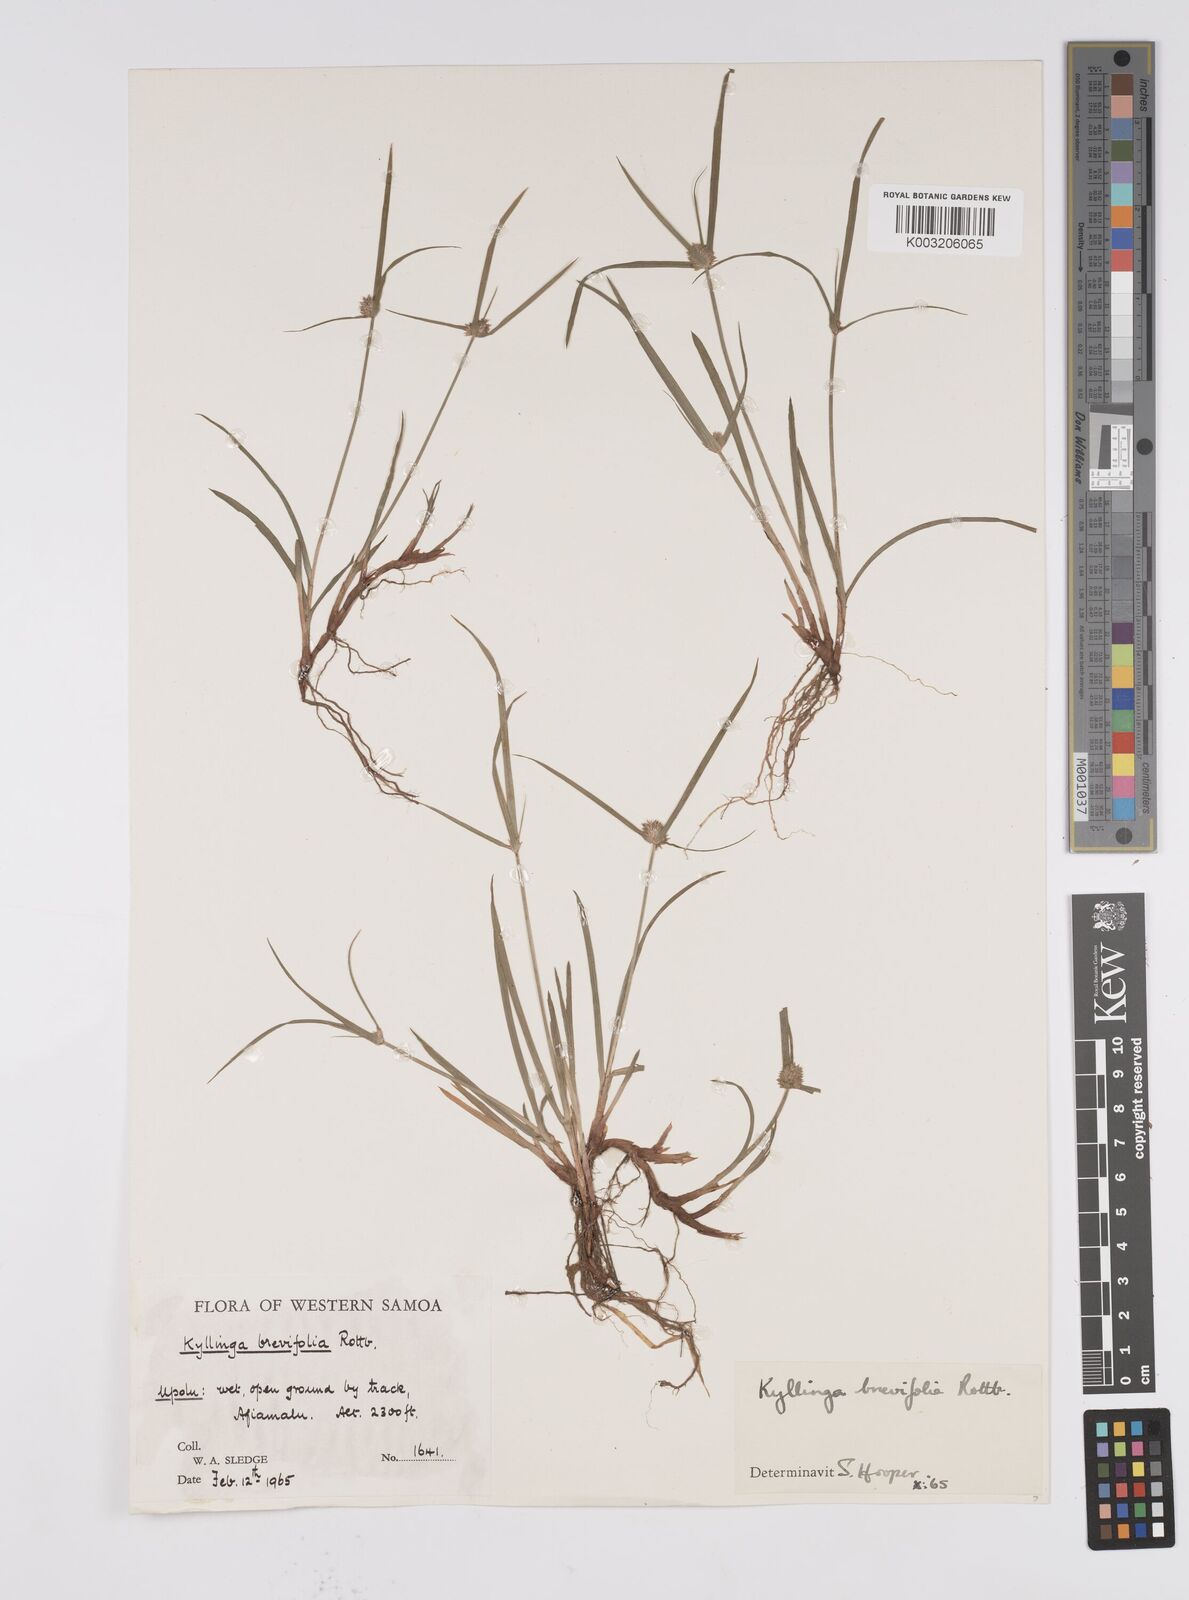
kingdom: Plantae
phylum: Tracheophyta
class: Liliopsida
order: Poales
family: Cyperaceae
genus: Cyperus
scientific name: Cyperus brevifolius
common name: Globe kyllinga
